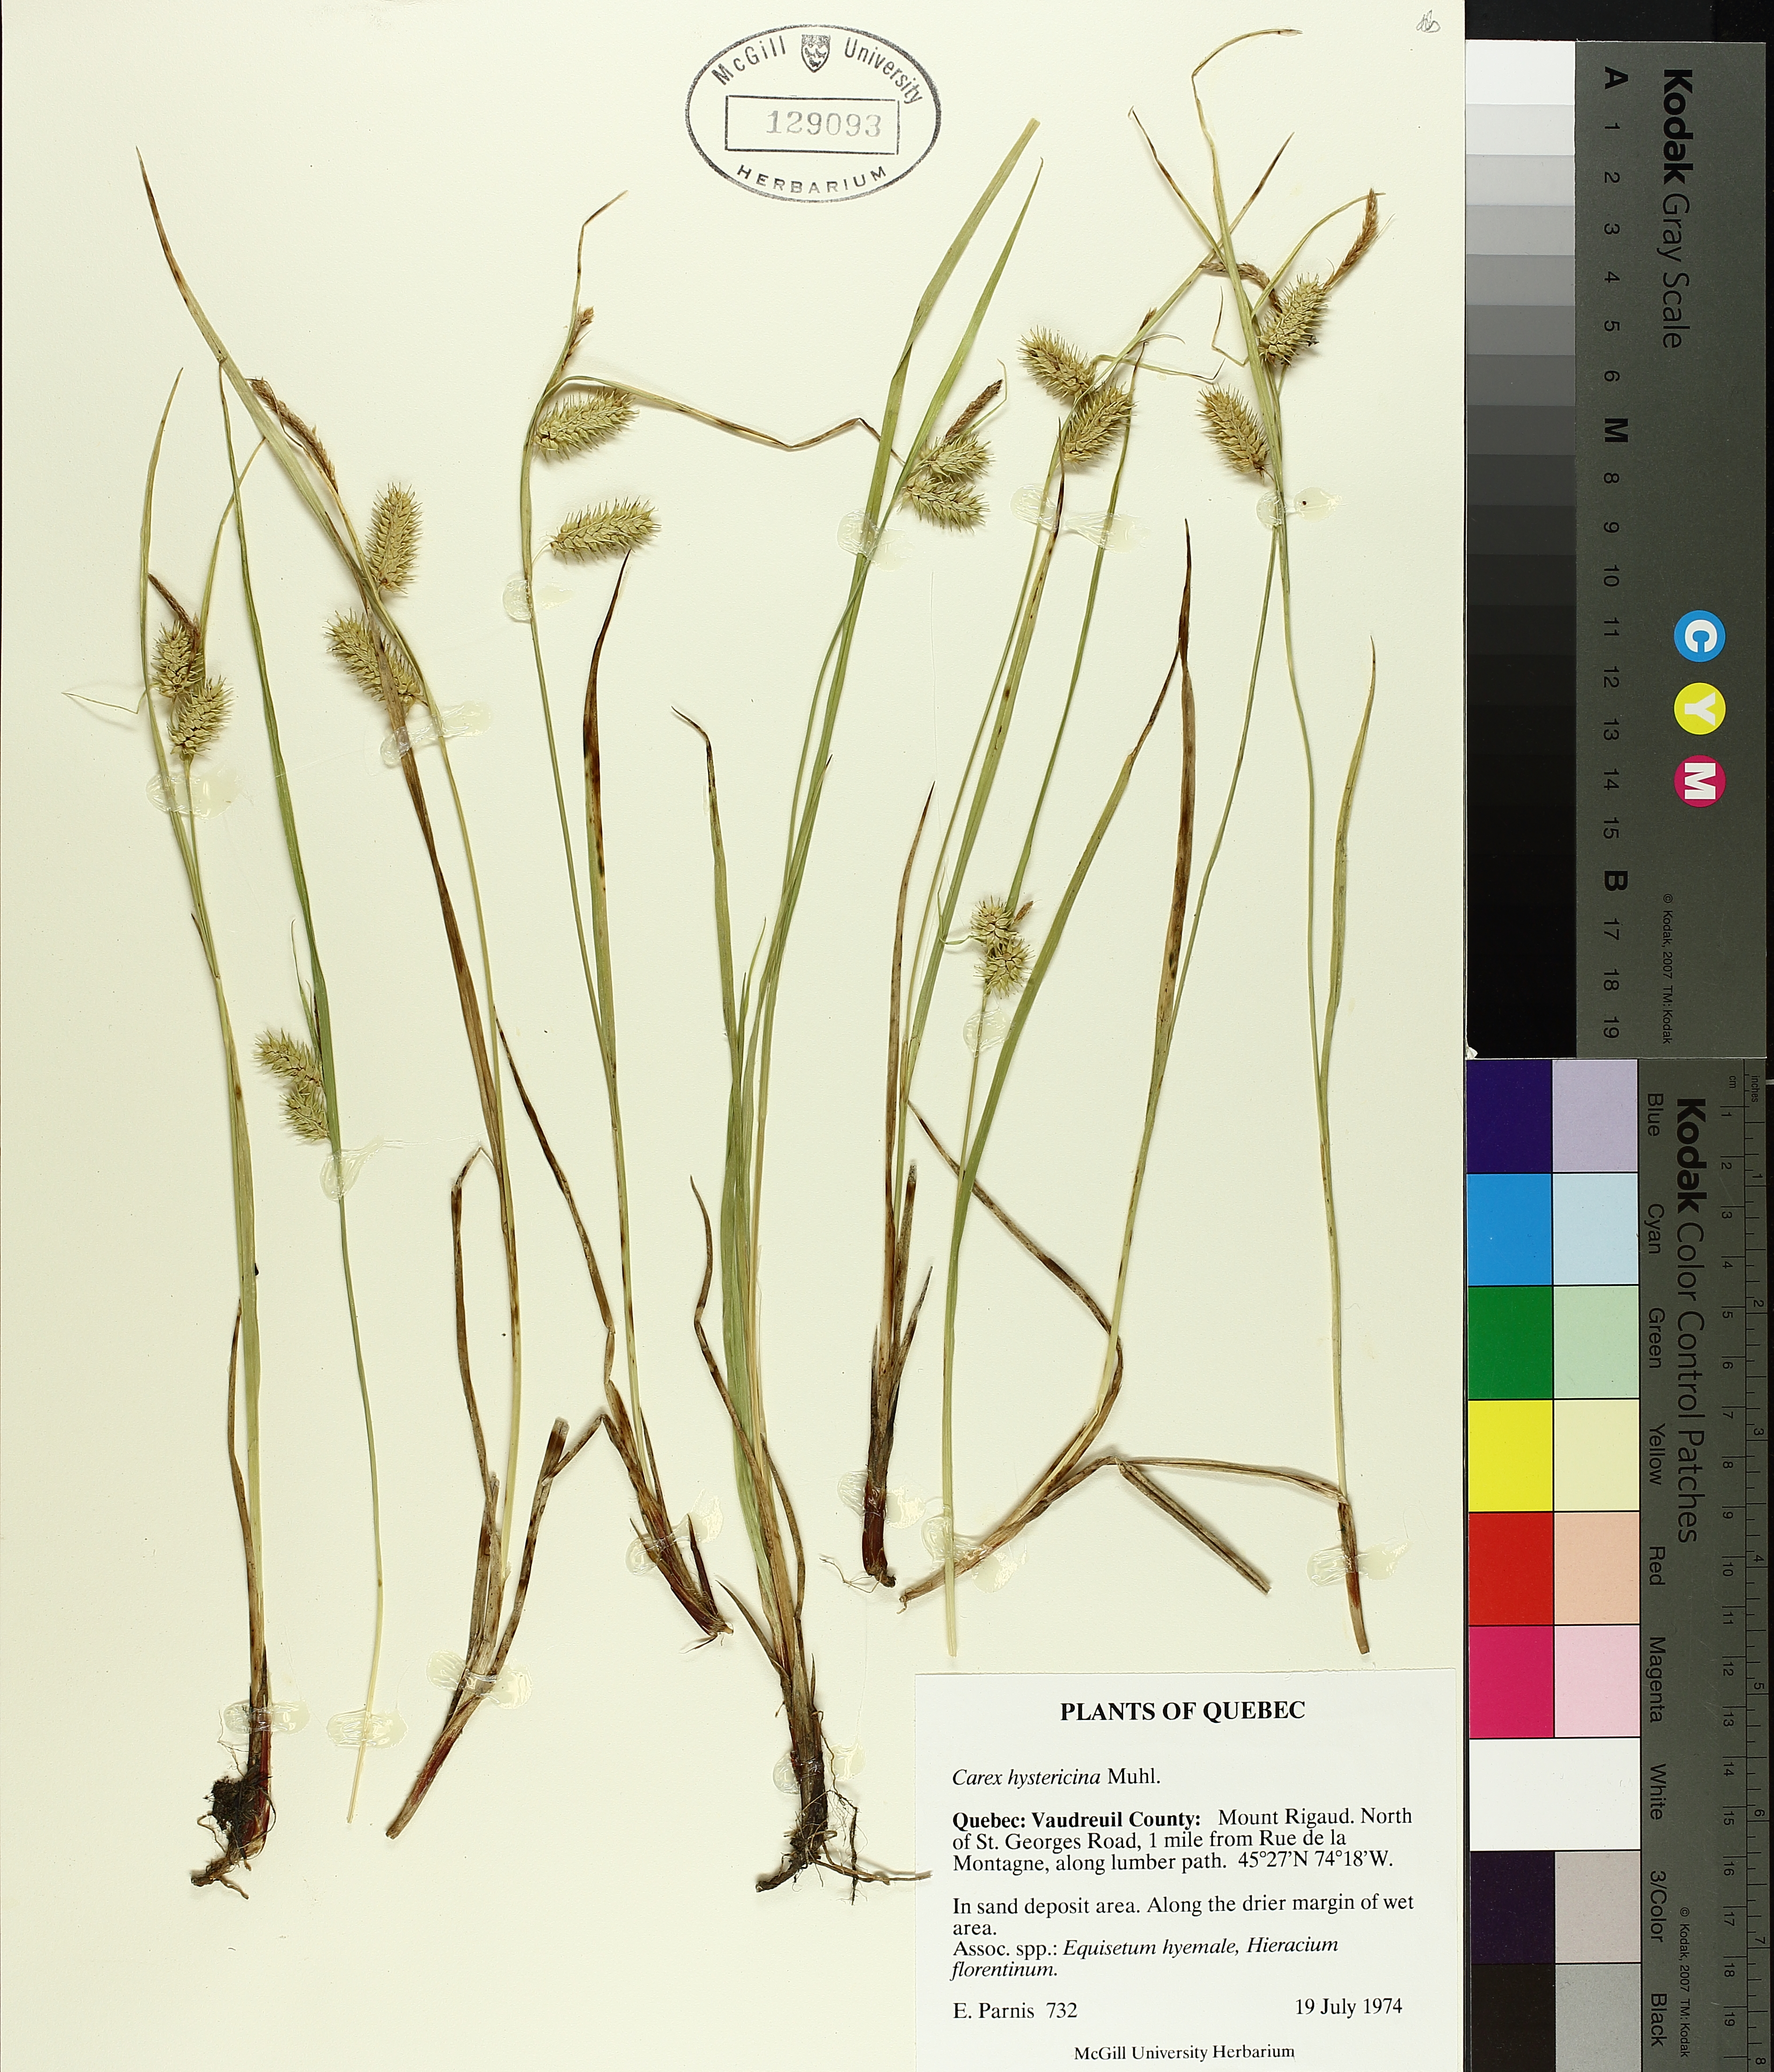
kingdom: Plantae
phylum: Tracheophyta
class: Liliopsida
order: Poales
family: Cyperaceae
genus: Carex
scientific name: Carex hystericina
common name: Bottlebrush sedge
